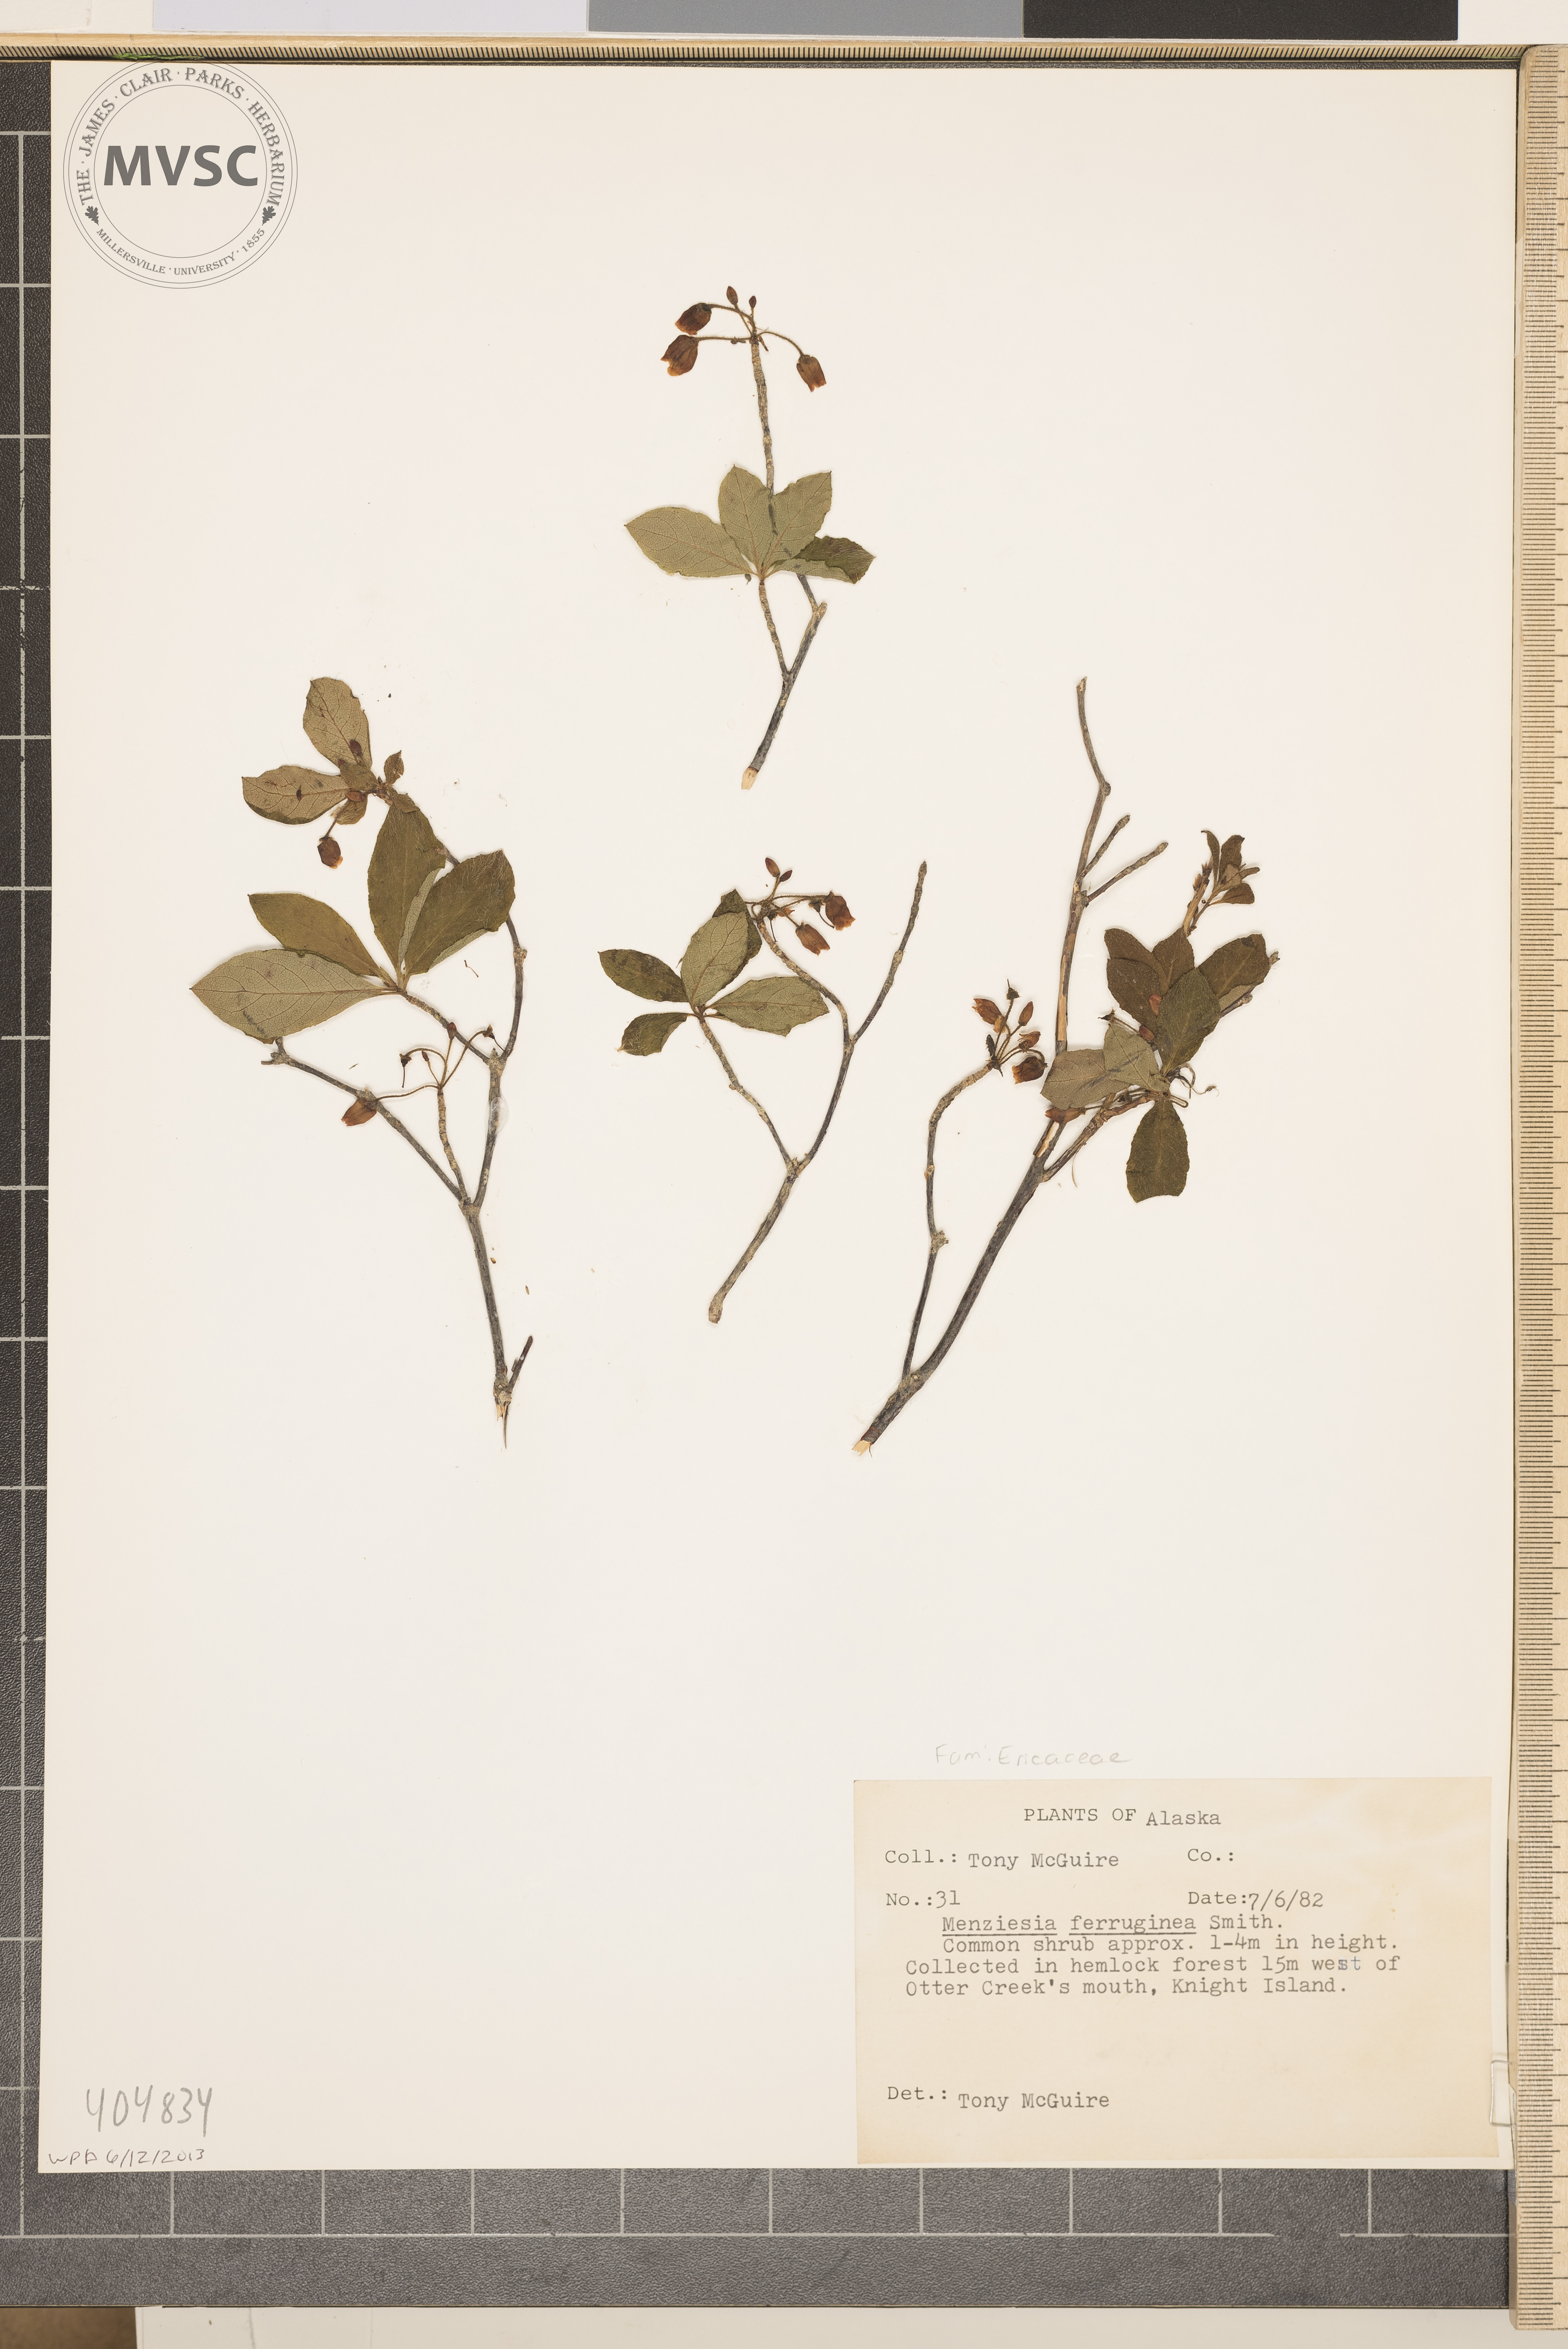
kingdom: Plantae
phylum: Tracheophyta
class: Magnoliopsida
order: Ericales
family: Ericaceae
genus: Rhododendron
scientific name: Rhododendron menziesii
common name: Pacific menziesia
